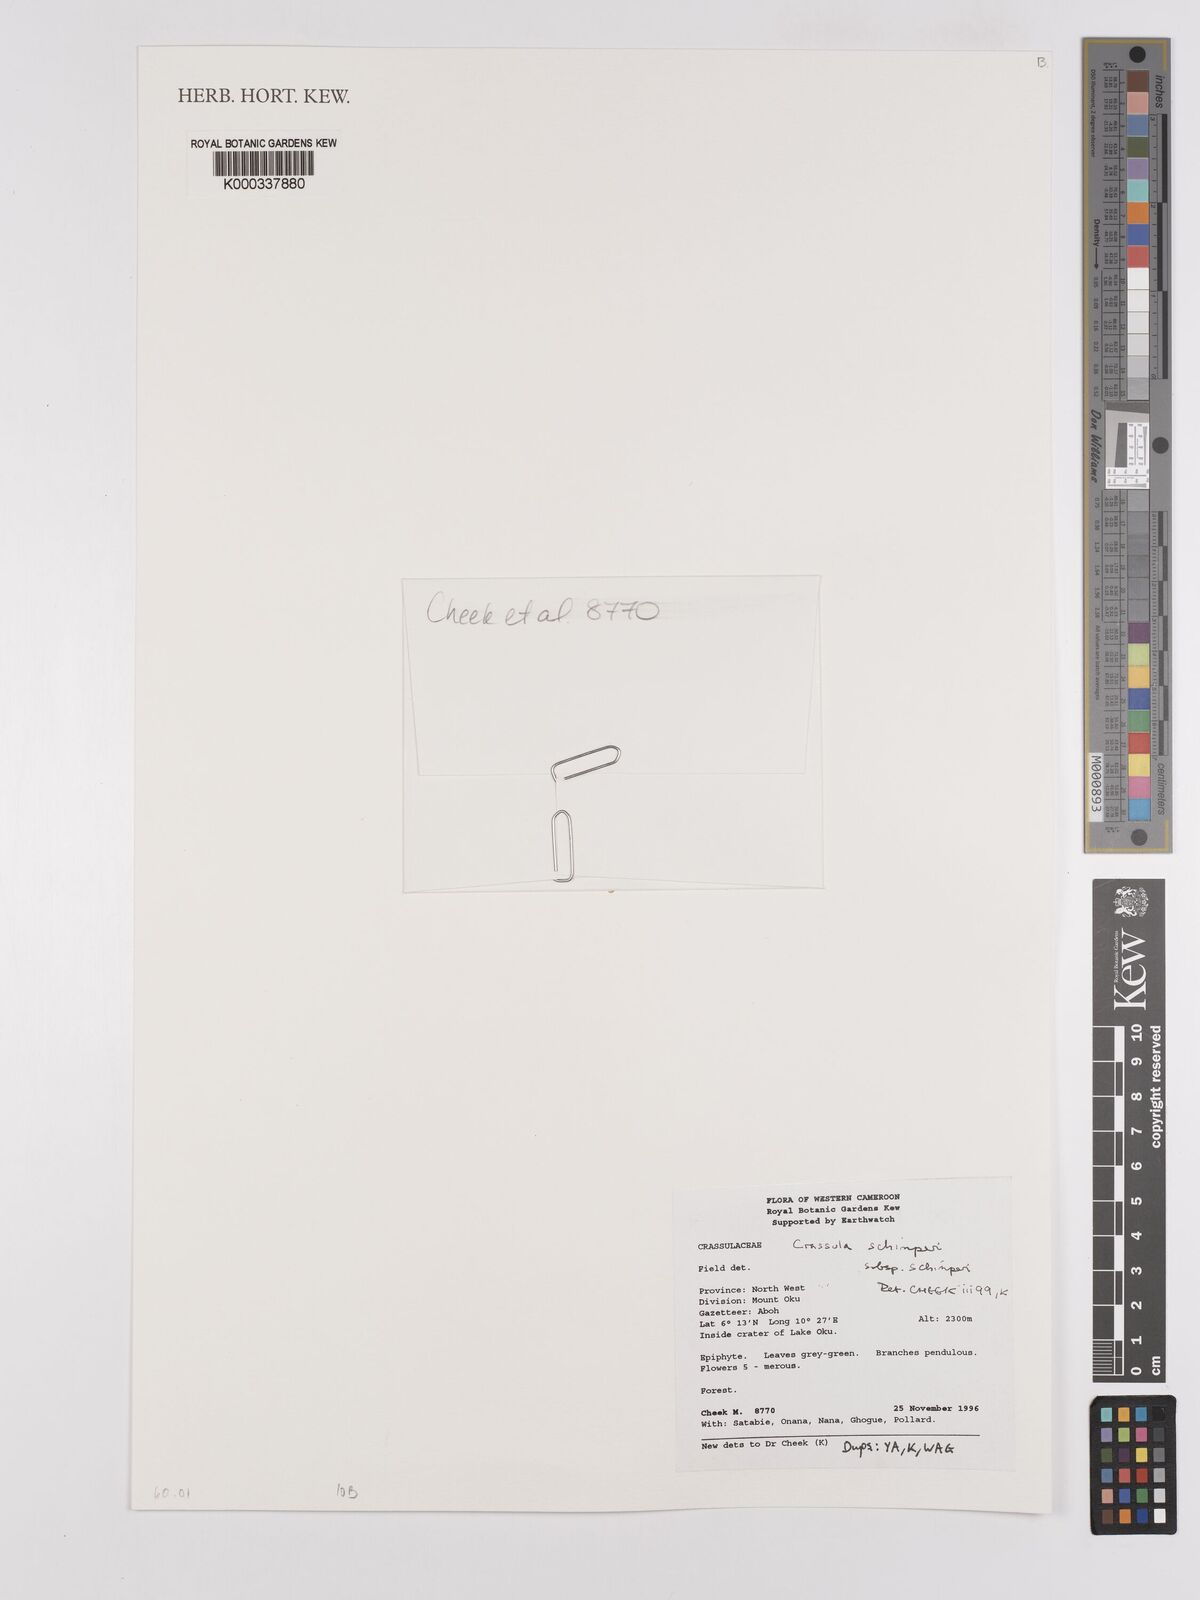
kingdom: Plantae
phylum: Tracheophyta
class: Magnoliopsida
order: Saxifragales
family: Crassulaceae
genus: Crassula
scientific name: Crassula schimperi
